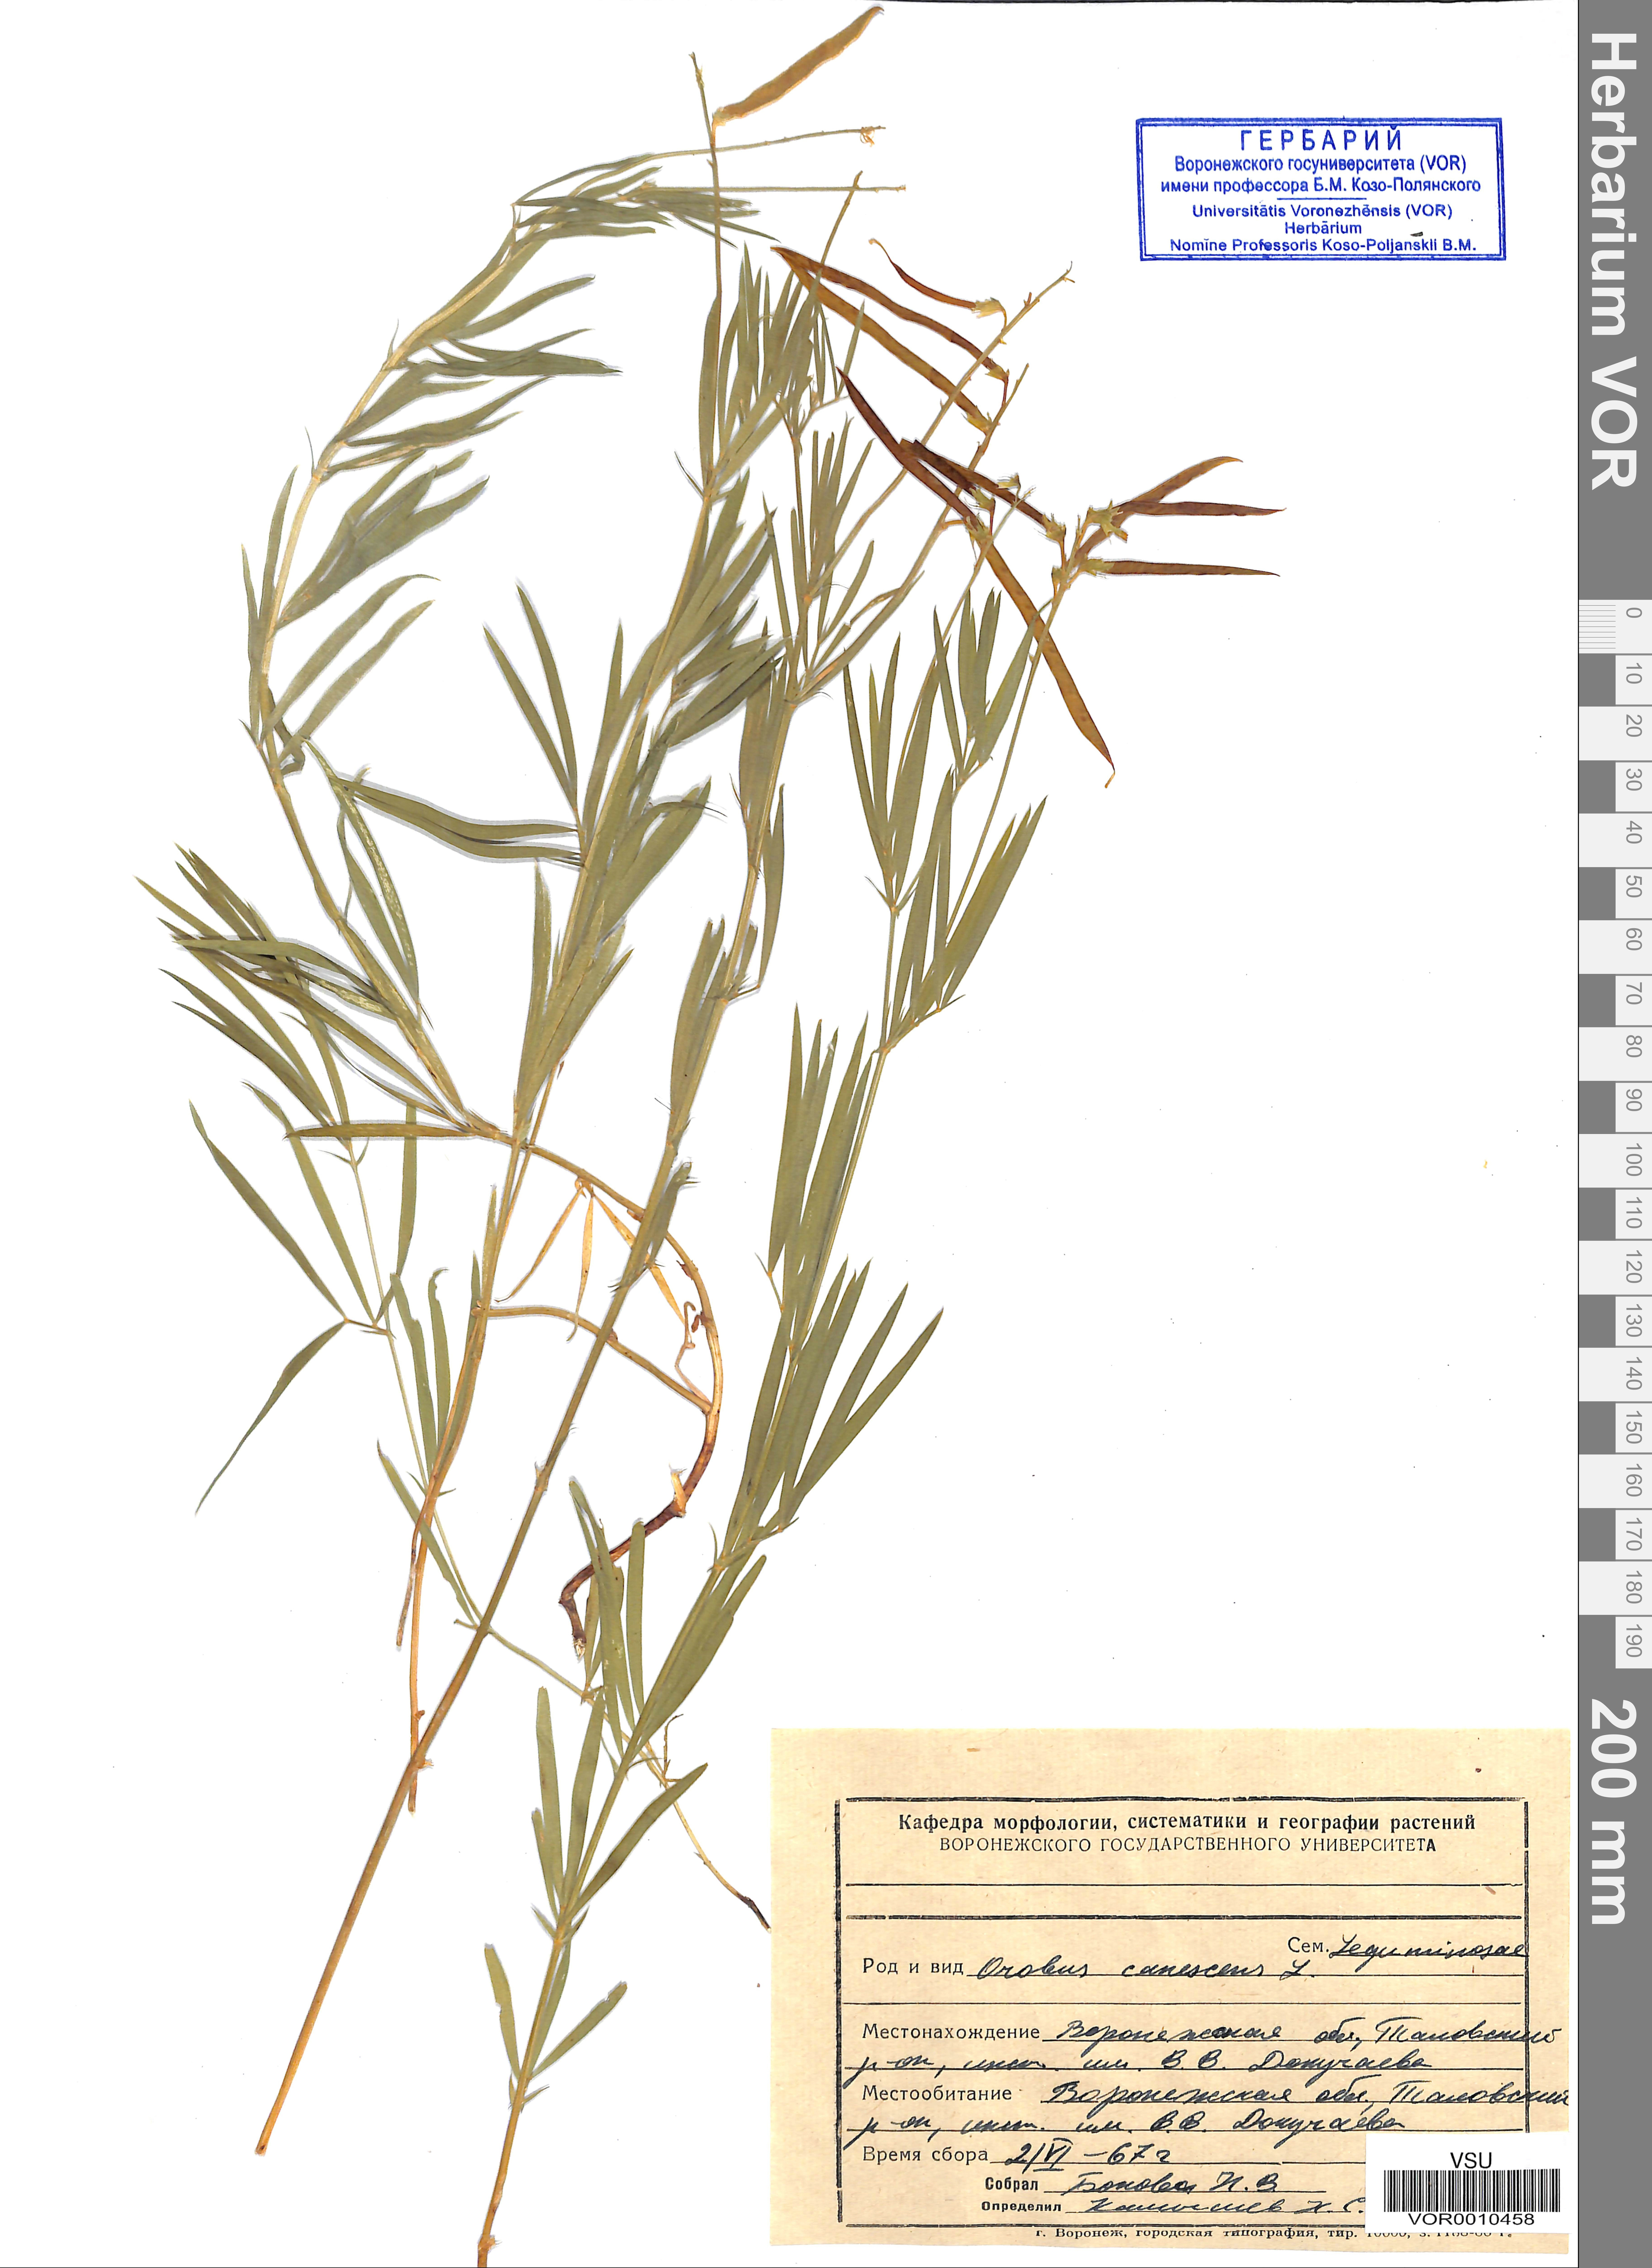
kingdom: Plantae
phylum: Tracheophyta
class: Magnoliopsida
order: Fabales
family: Fabaceae
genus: Lathyrus
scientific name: Lathyrus filiformis
